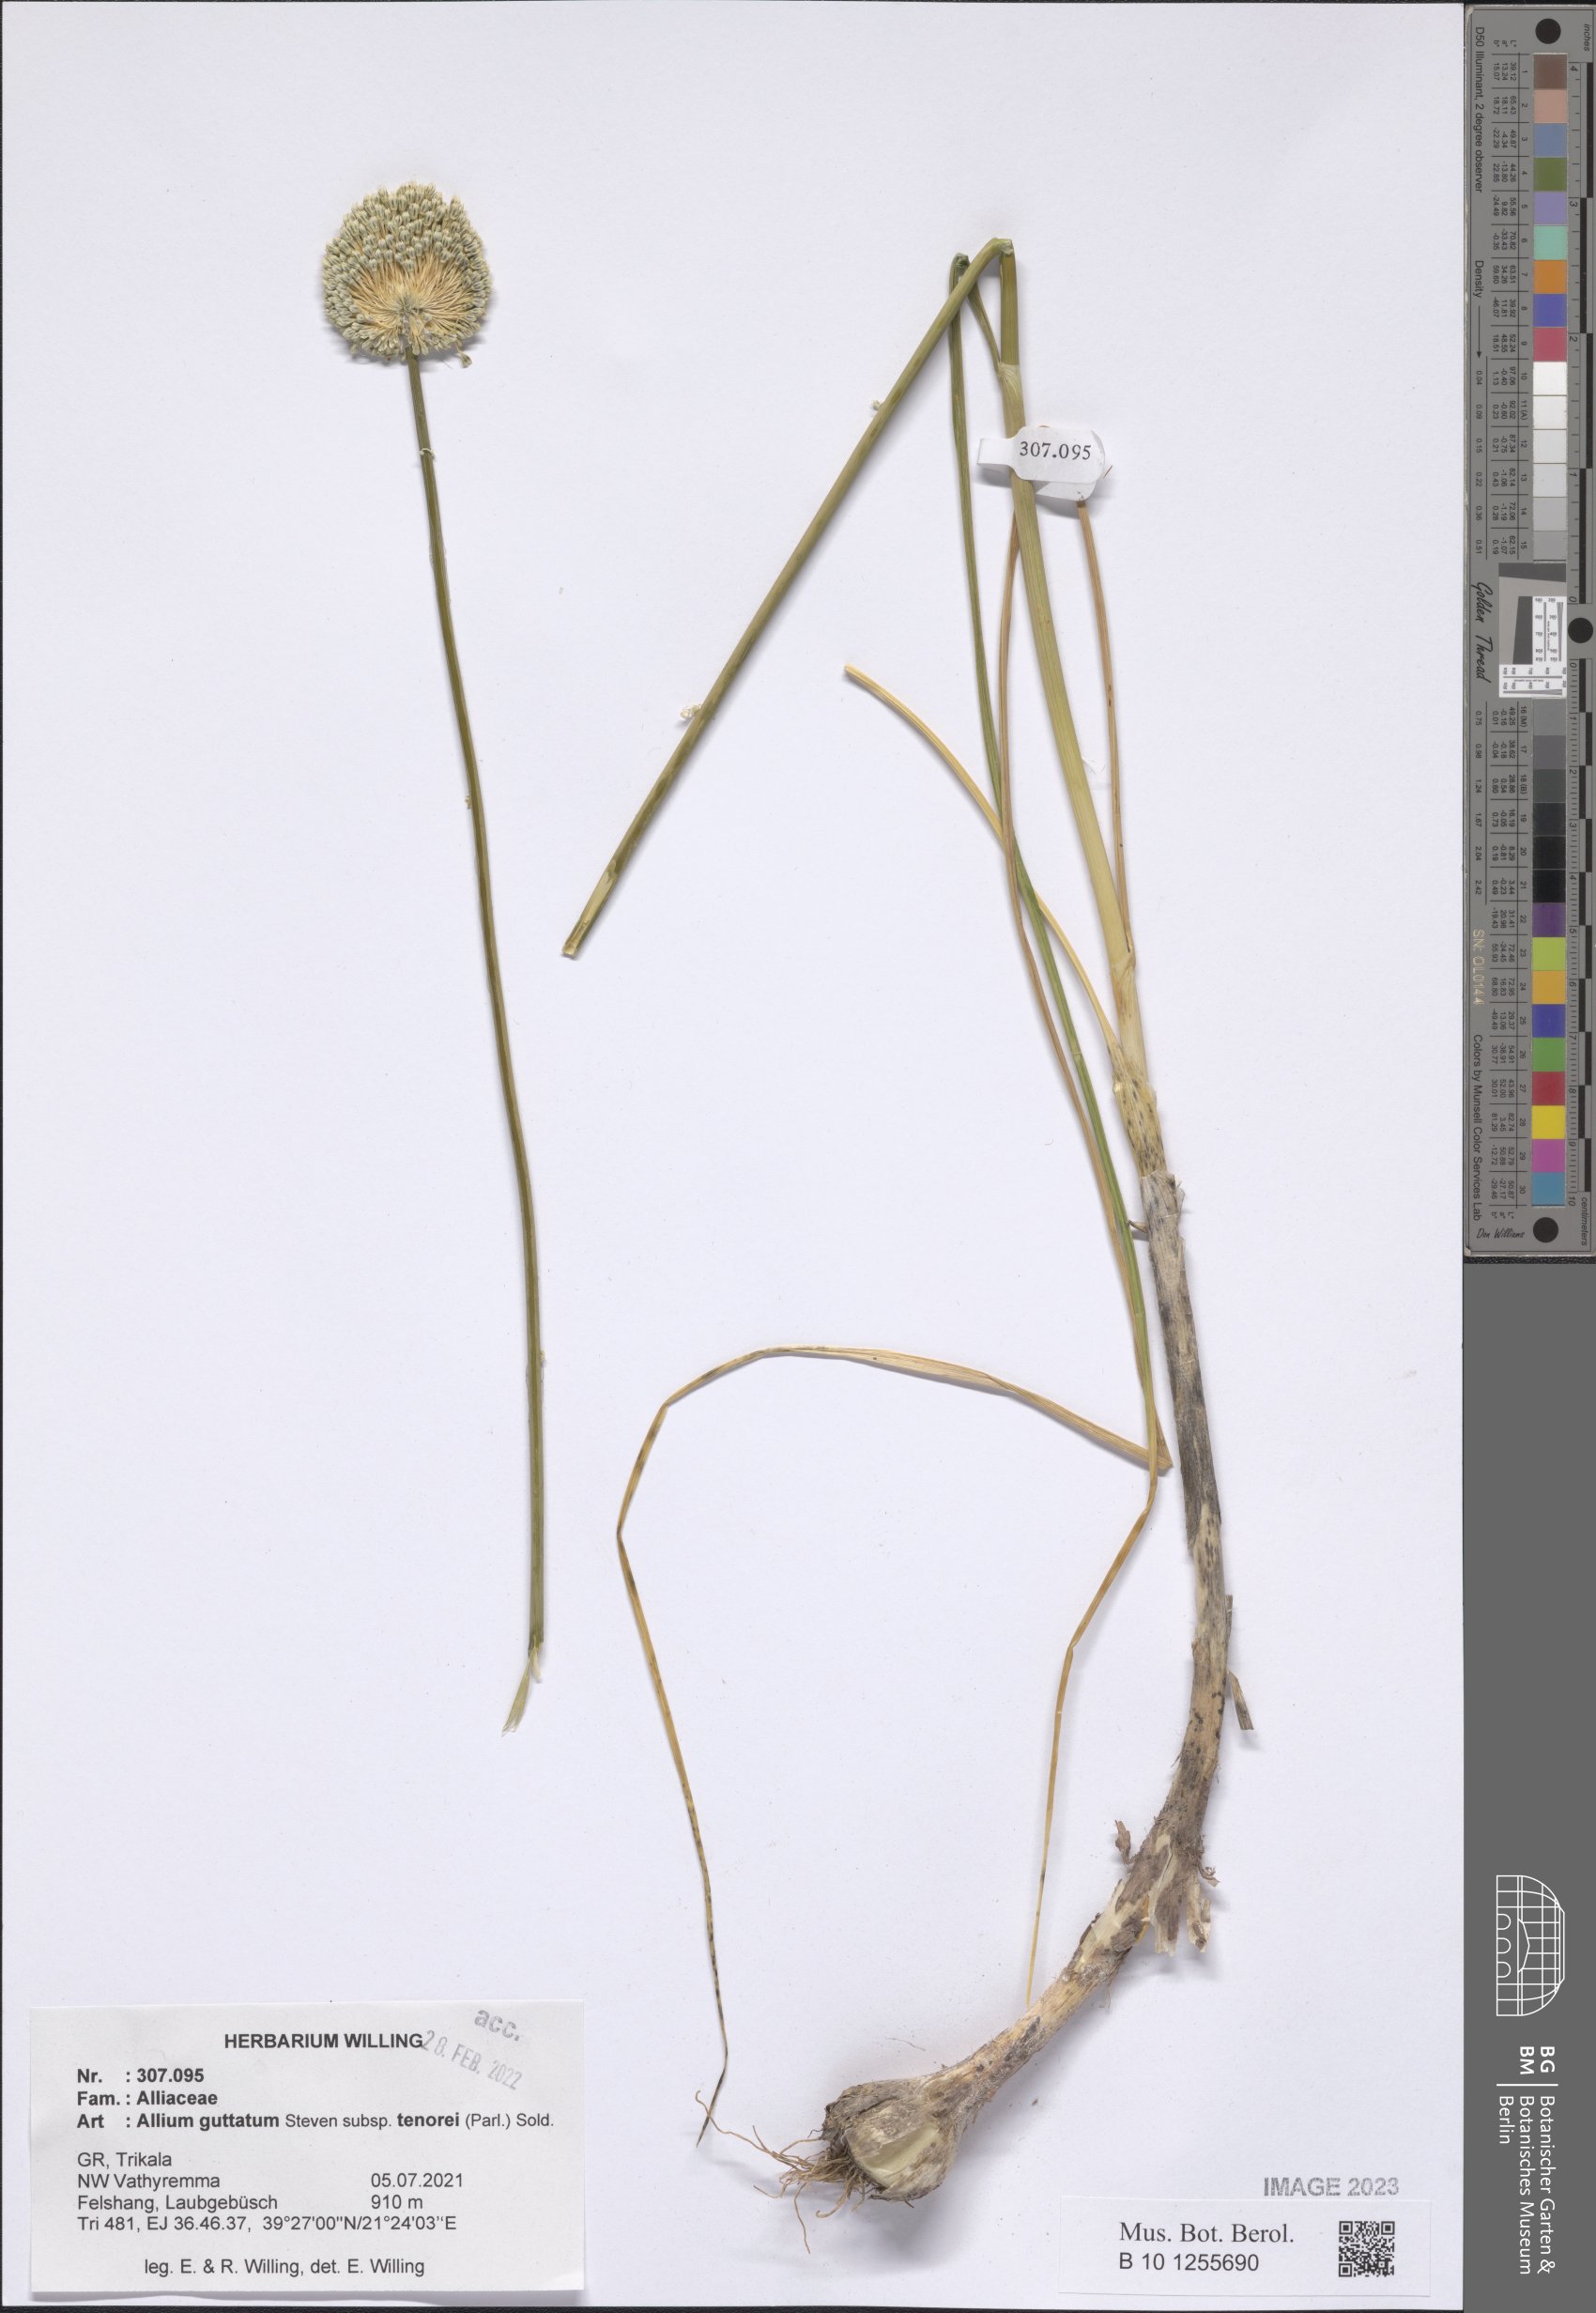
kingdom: Plantae
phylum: Tracheophyta
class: Liliopsida
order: Asparagales
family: Amaryllidaceae
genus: Allium
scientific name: Allium sardoum
